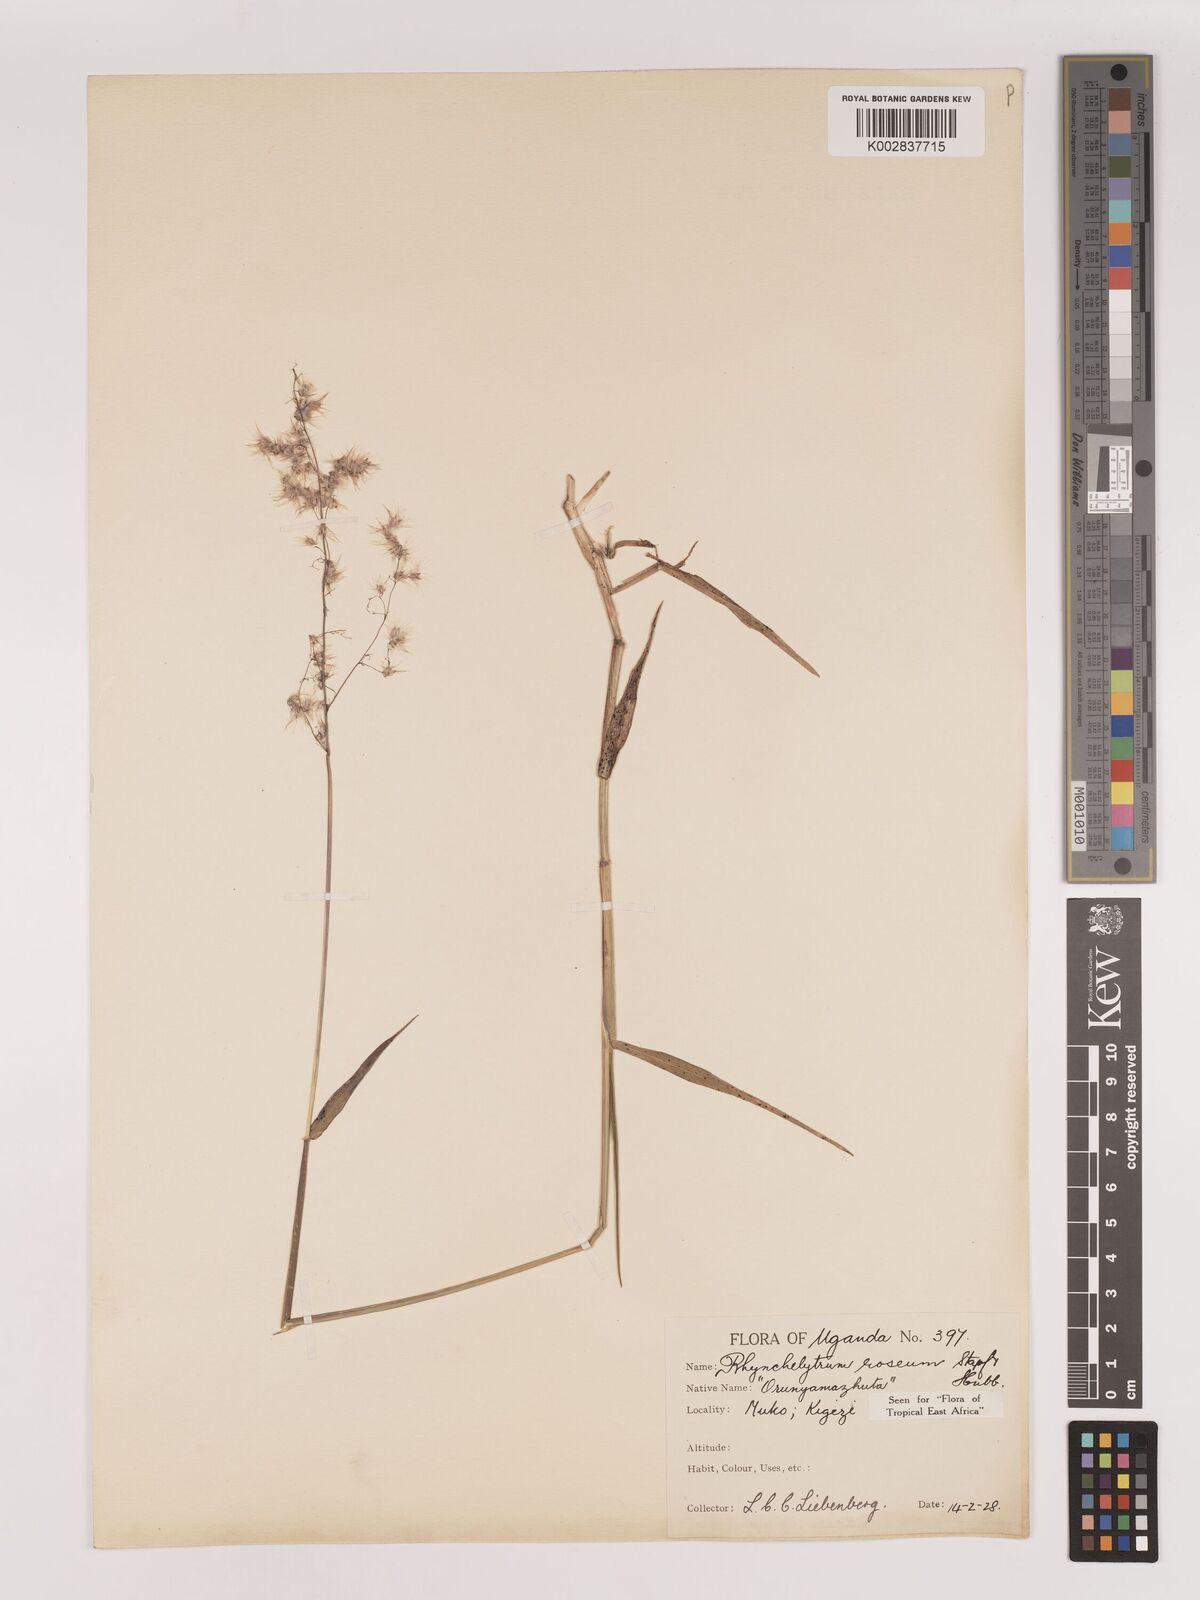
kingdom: Plantae
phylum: Tracheophyta
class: Liliopsida
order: Poales
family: Poaceae
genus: Melinis
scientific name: Melinis repens
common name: Rose natal grass
